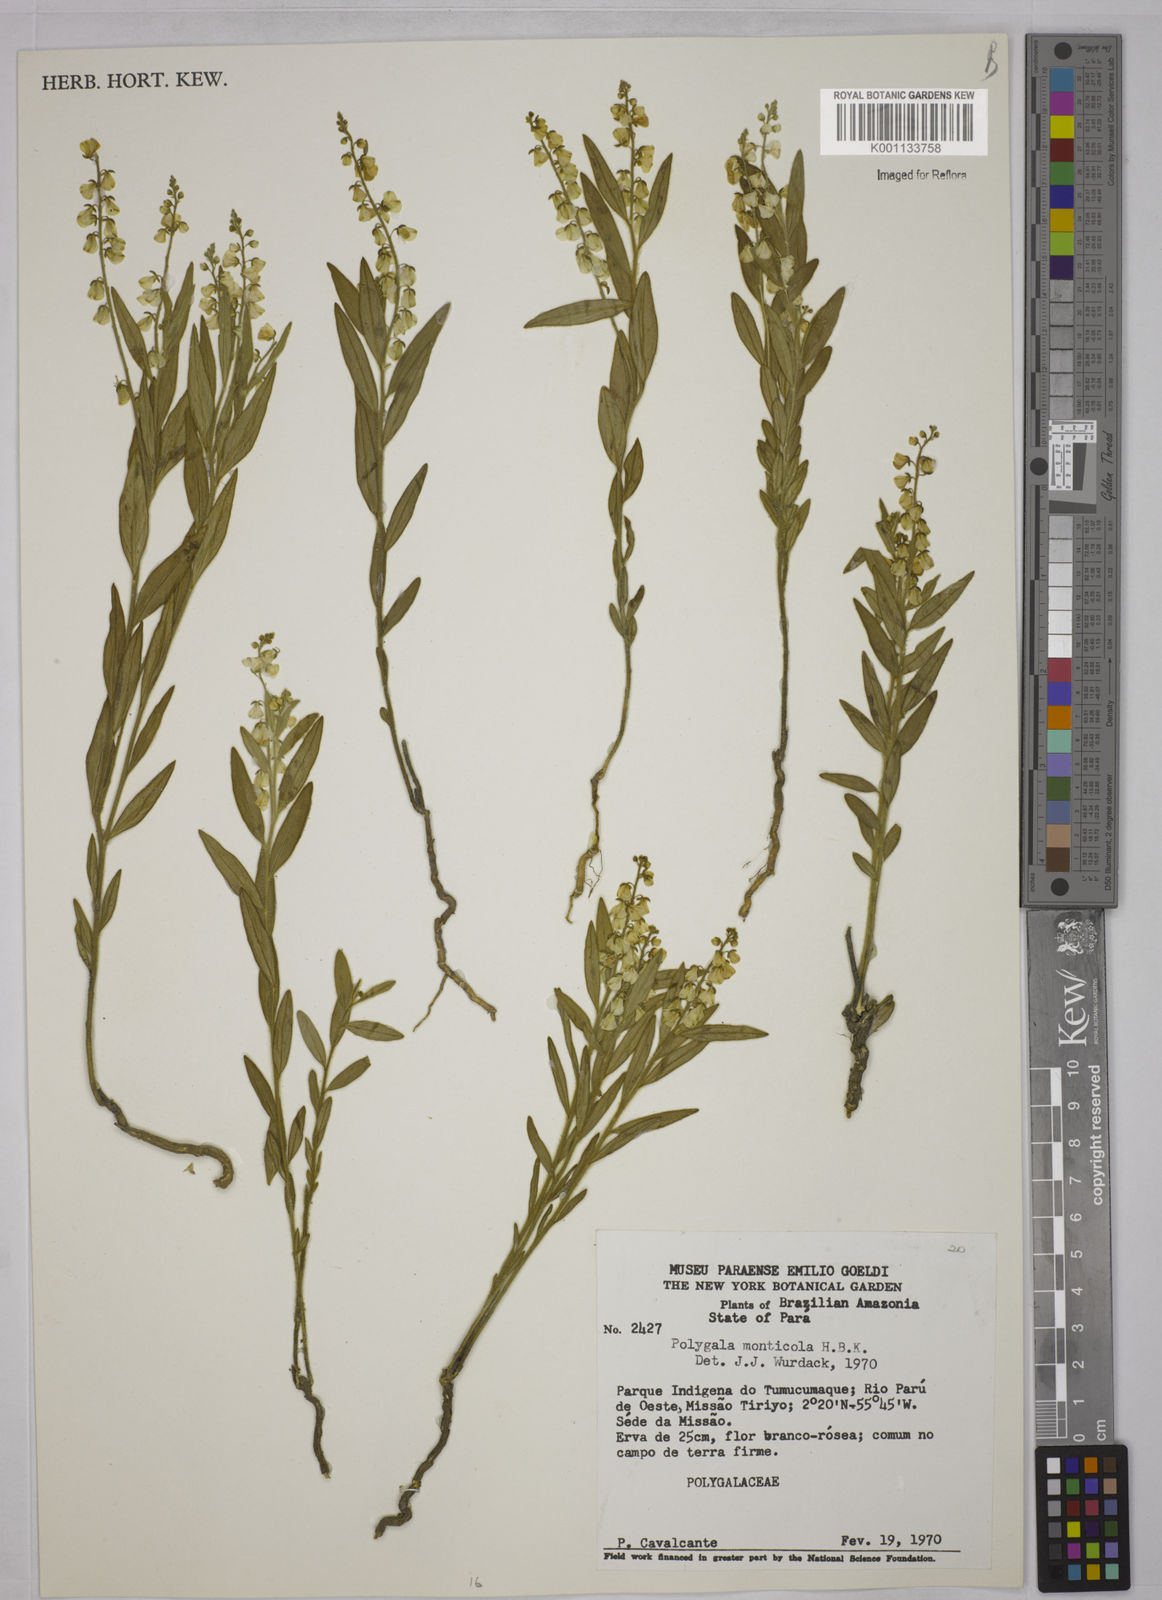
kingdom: Plantae
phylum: Tracheophyta
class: Magnoliopsida
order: Fabales
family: Polygalaceae
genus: Asemeia
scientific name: Asemeia monticola
